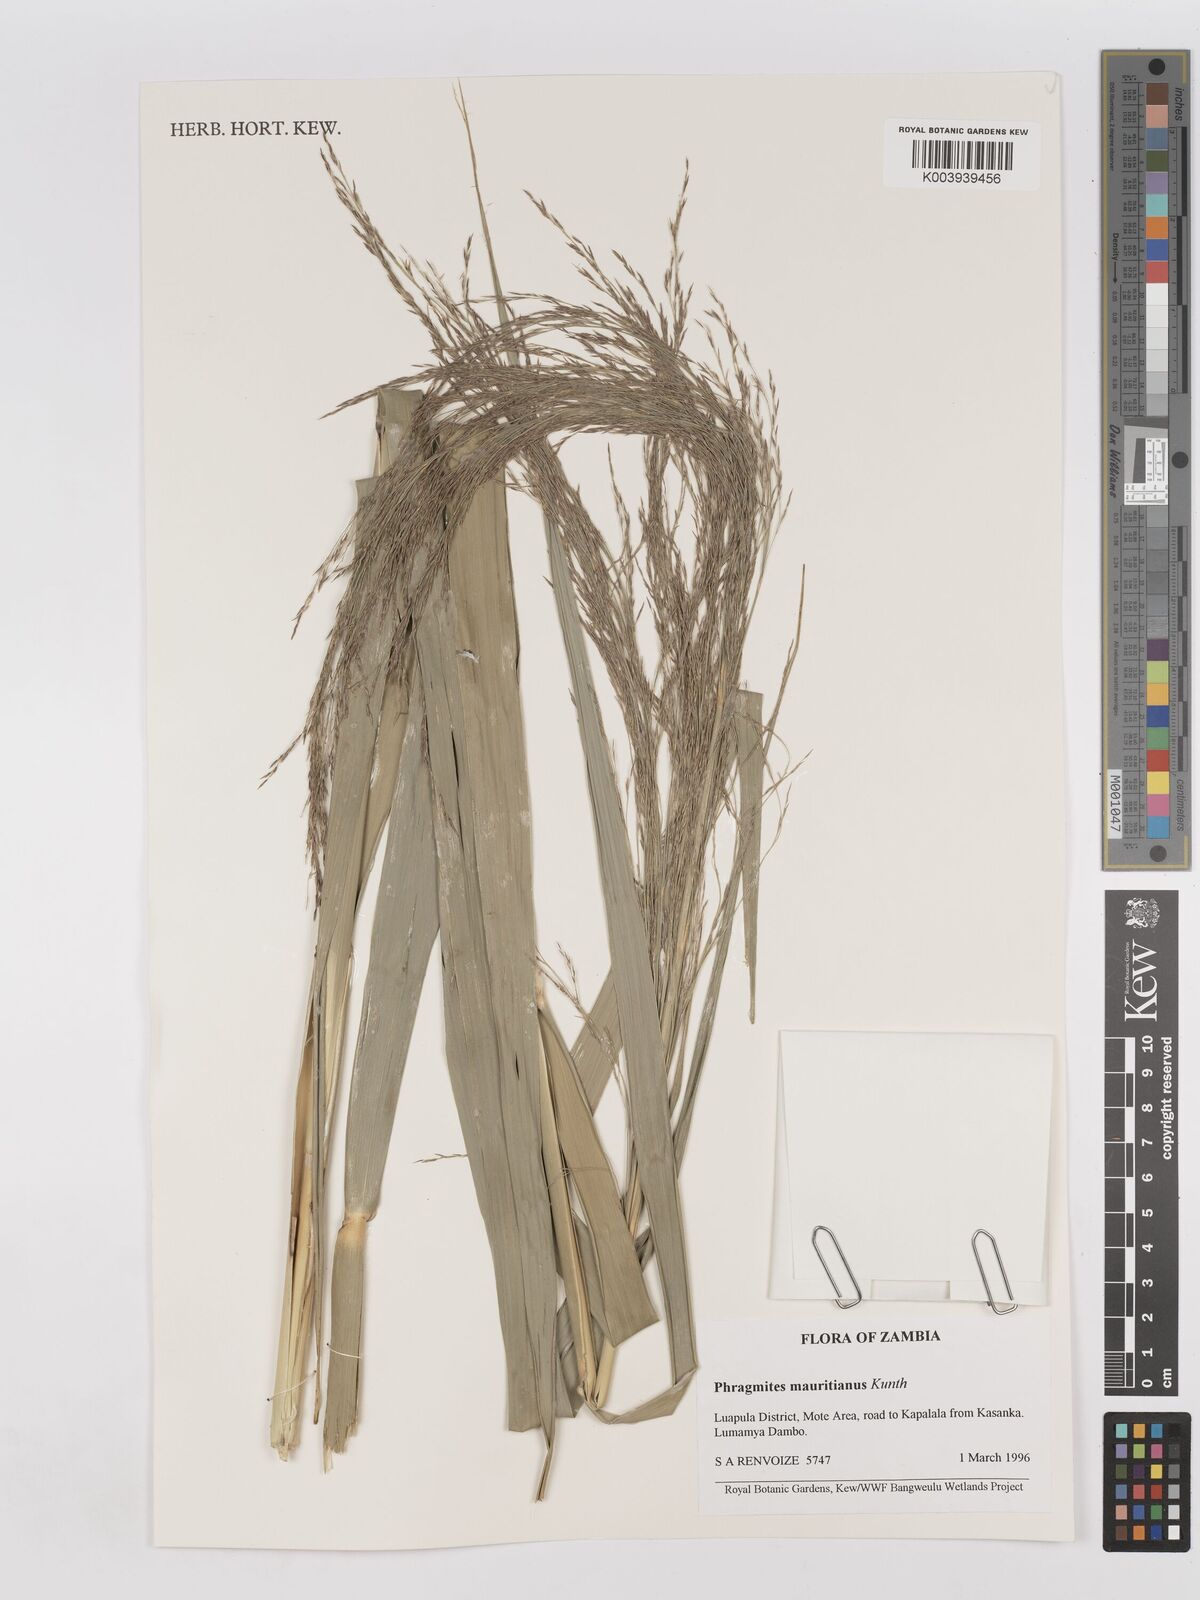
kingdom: Plantae
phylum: Tracheophyta
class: Liliopsida
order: Poales
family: Poaceae
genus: Phragmites
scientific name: Phragmites mauritianus
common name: Reed grass
